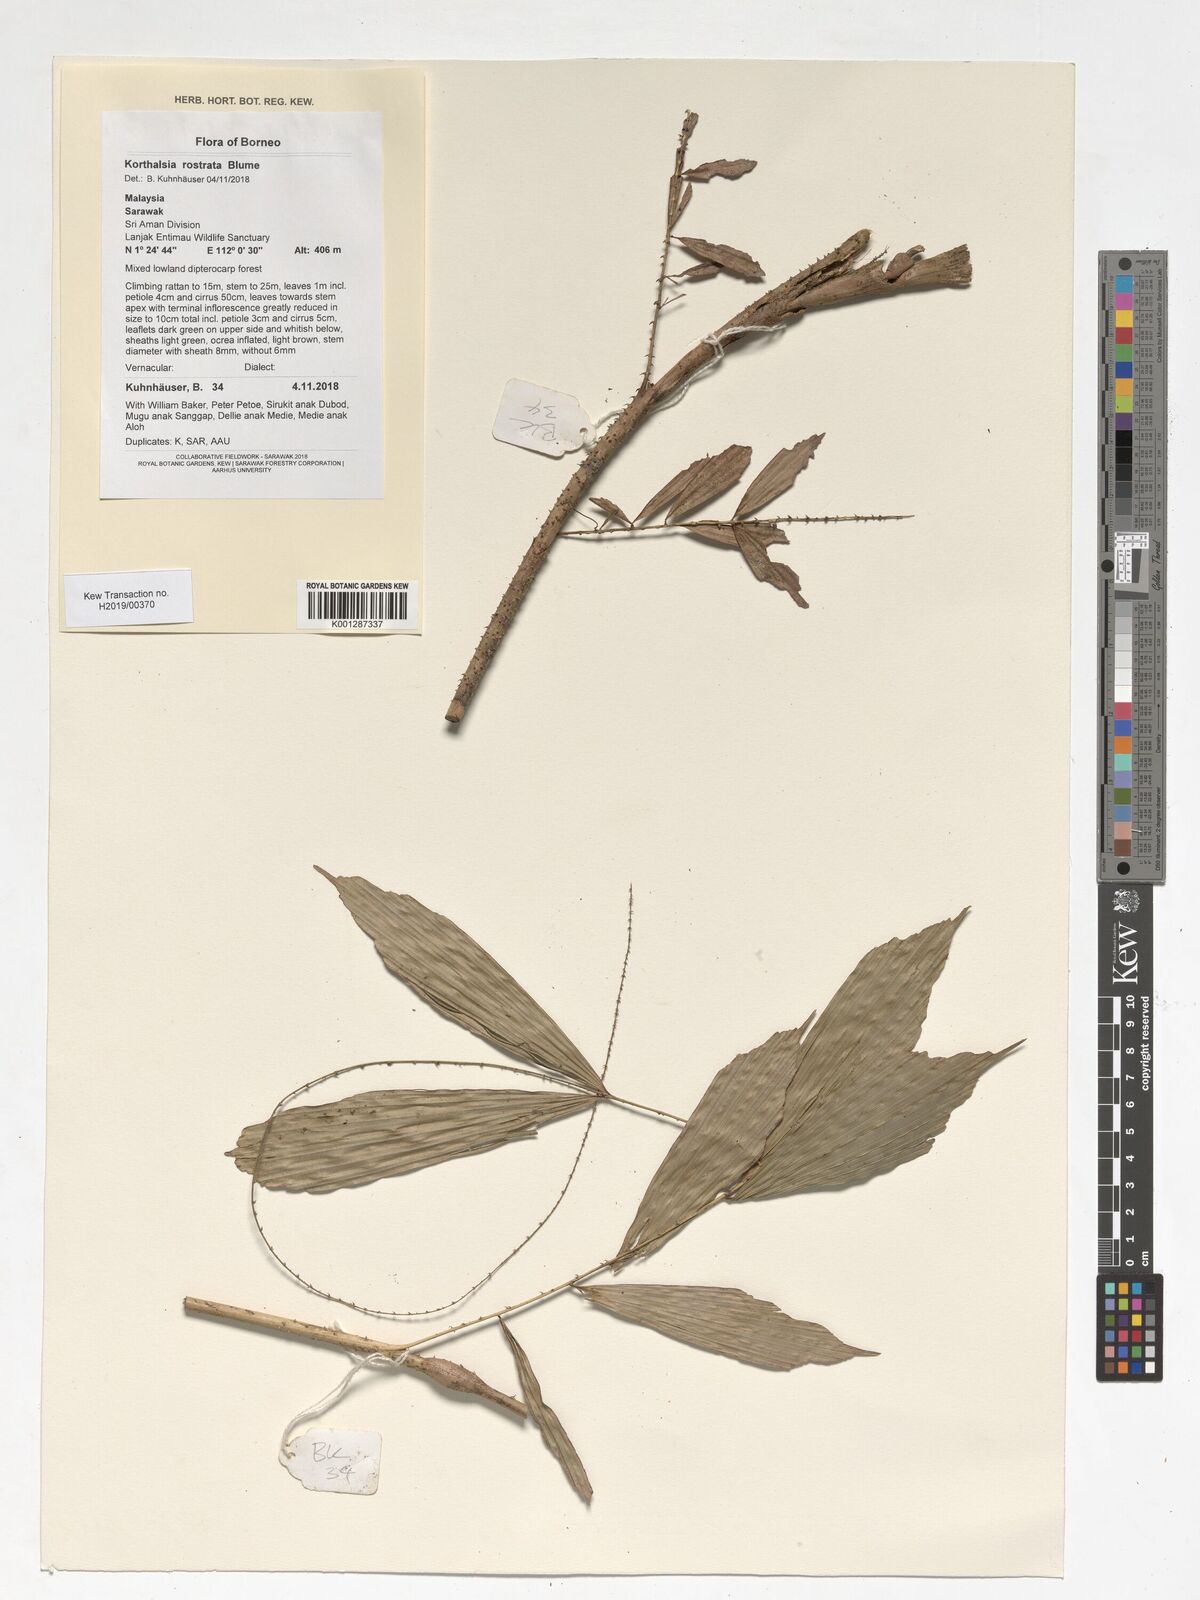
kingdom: Plantae
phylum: Tracheophyta
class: Liliopsida
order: Arecales
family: Arecaceae
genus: Korthalsia
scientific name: Korthalsia rostrata
